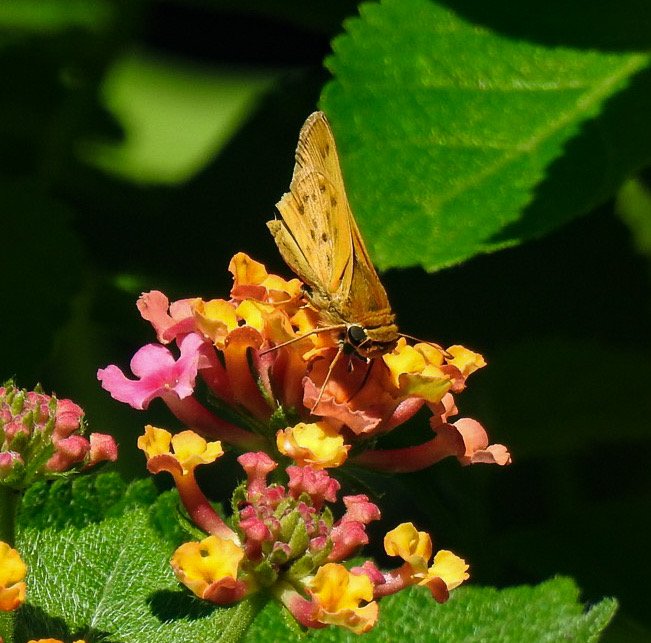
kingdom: Animalia
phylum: Arthropoda
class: Insecta
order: Lepidoptera
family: Hesperiidae
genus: Hylephila
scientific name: Hylephila phyleus
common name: Fiery Skipper
